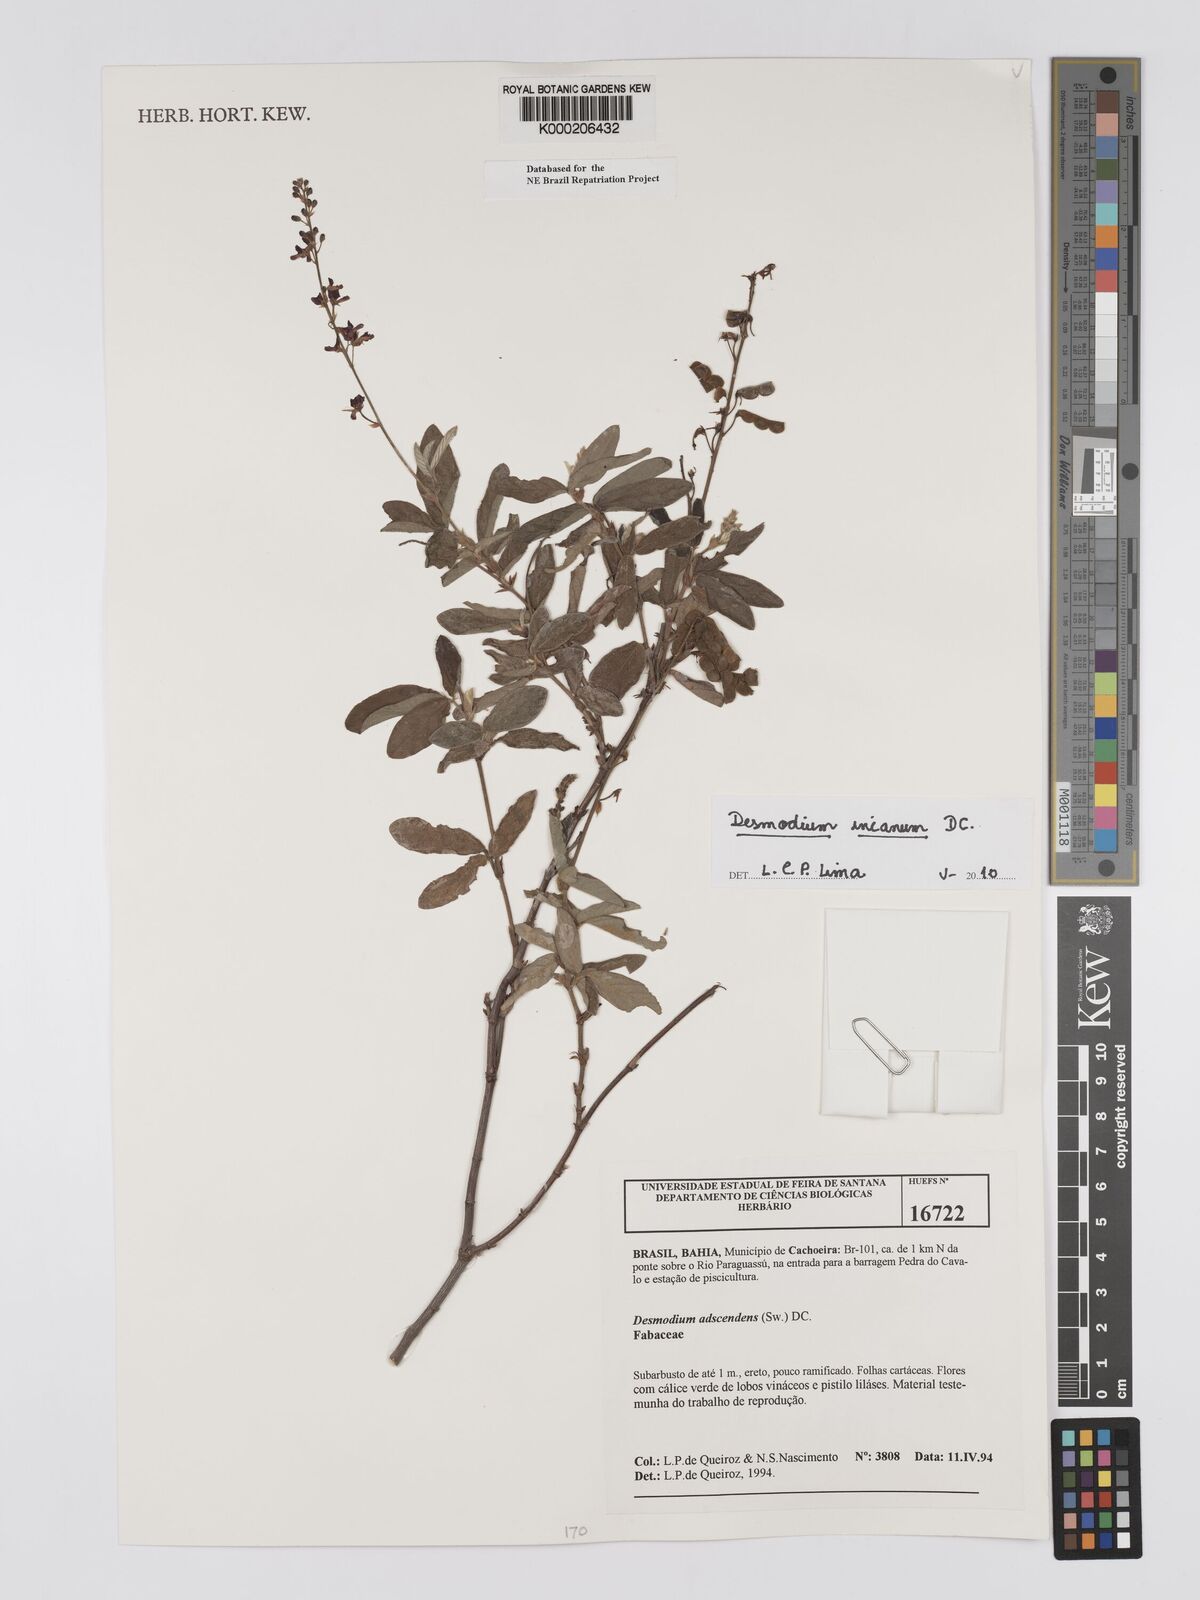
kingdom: Plantae
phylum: Tracheophyta
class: Magnoliopsida
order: Fabales
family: Fabaceae
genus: Grona
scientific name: Grona adscendens
